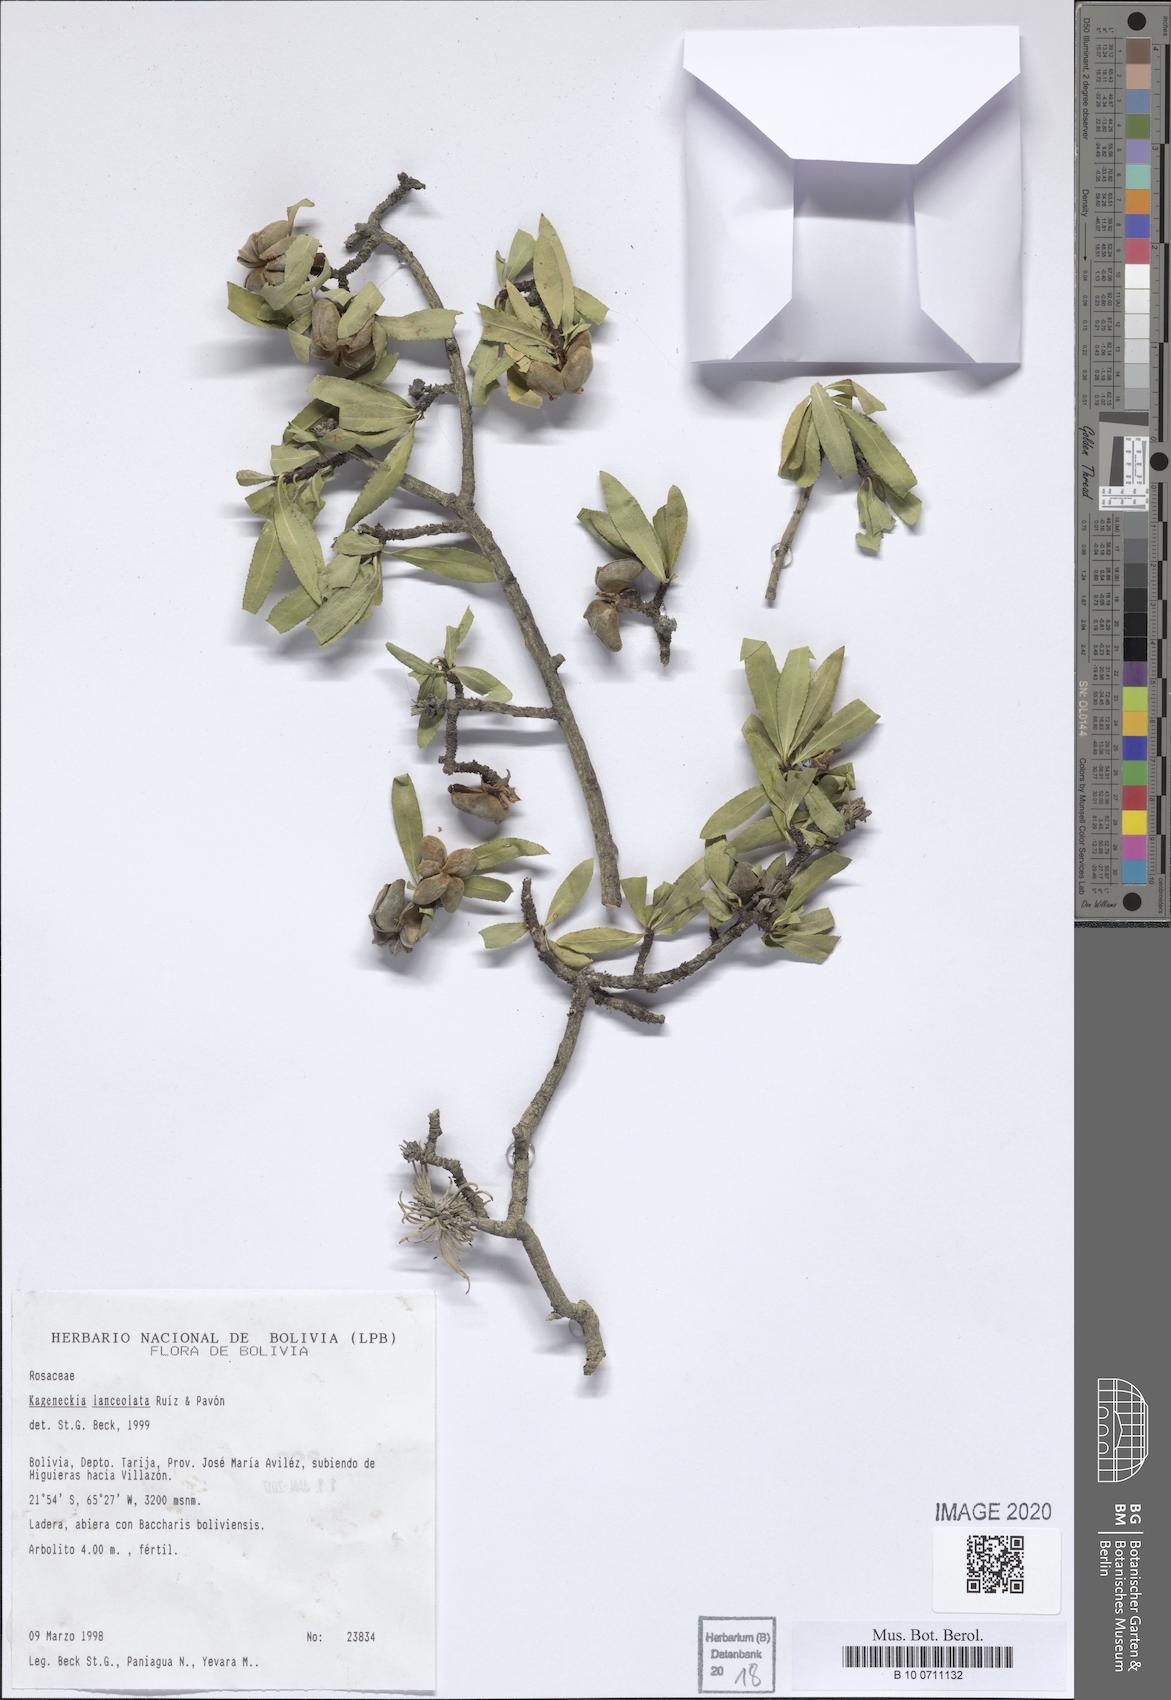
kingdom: Plantae
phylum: Tracheophyta
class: Magnoliopsida
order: Rosales
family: Rosaceae
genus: Kageneckia
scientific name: Kageneckia lanceolata
